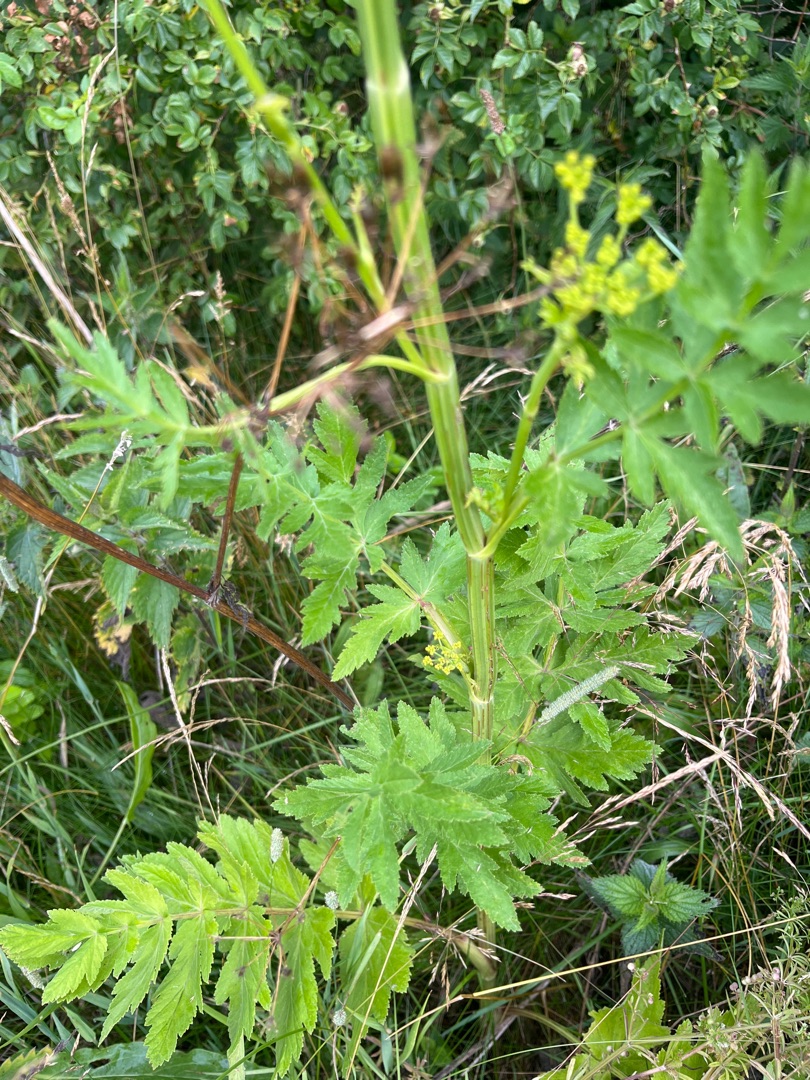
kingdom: Plantae
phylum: Tracheophyta
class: Magnoliopsida
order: Apiales
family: Apiaceae
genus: Pastinaca
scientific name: Pastinaca sativa
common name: Have-pastinak
